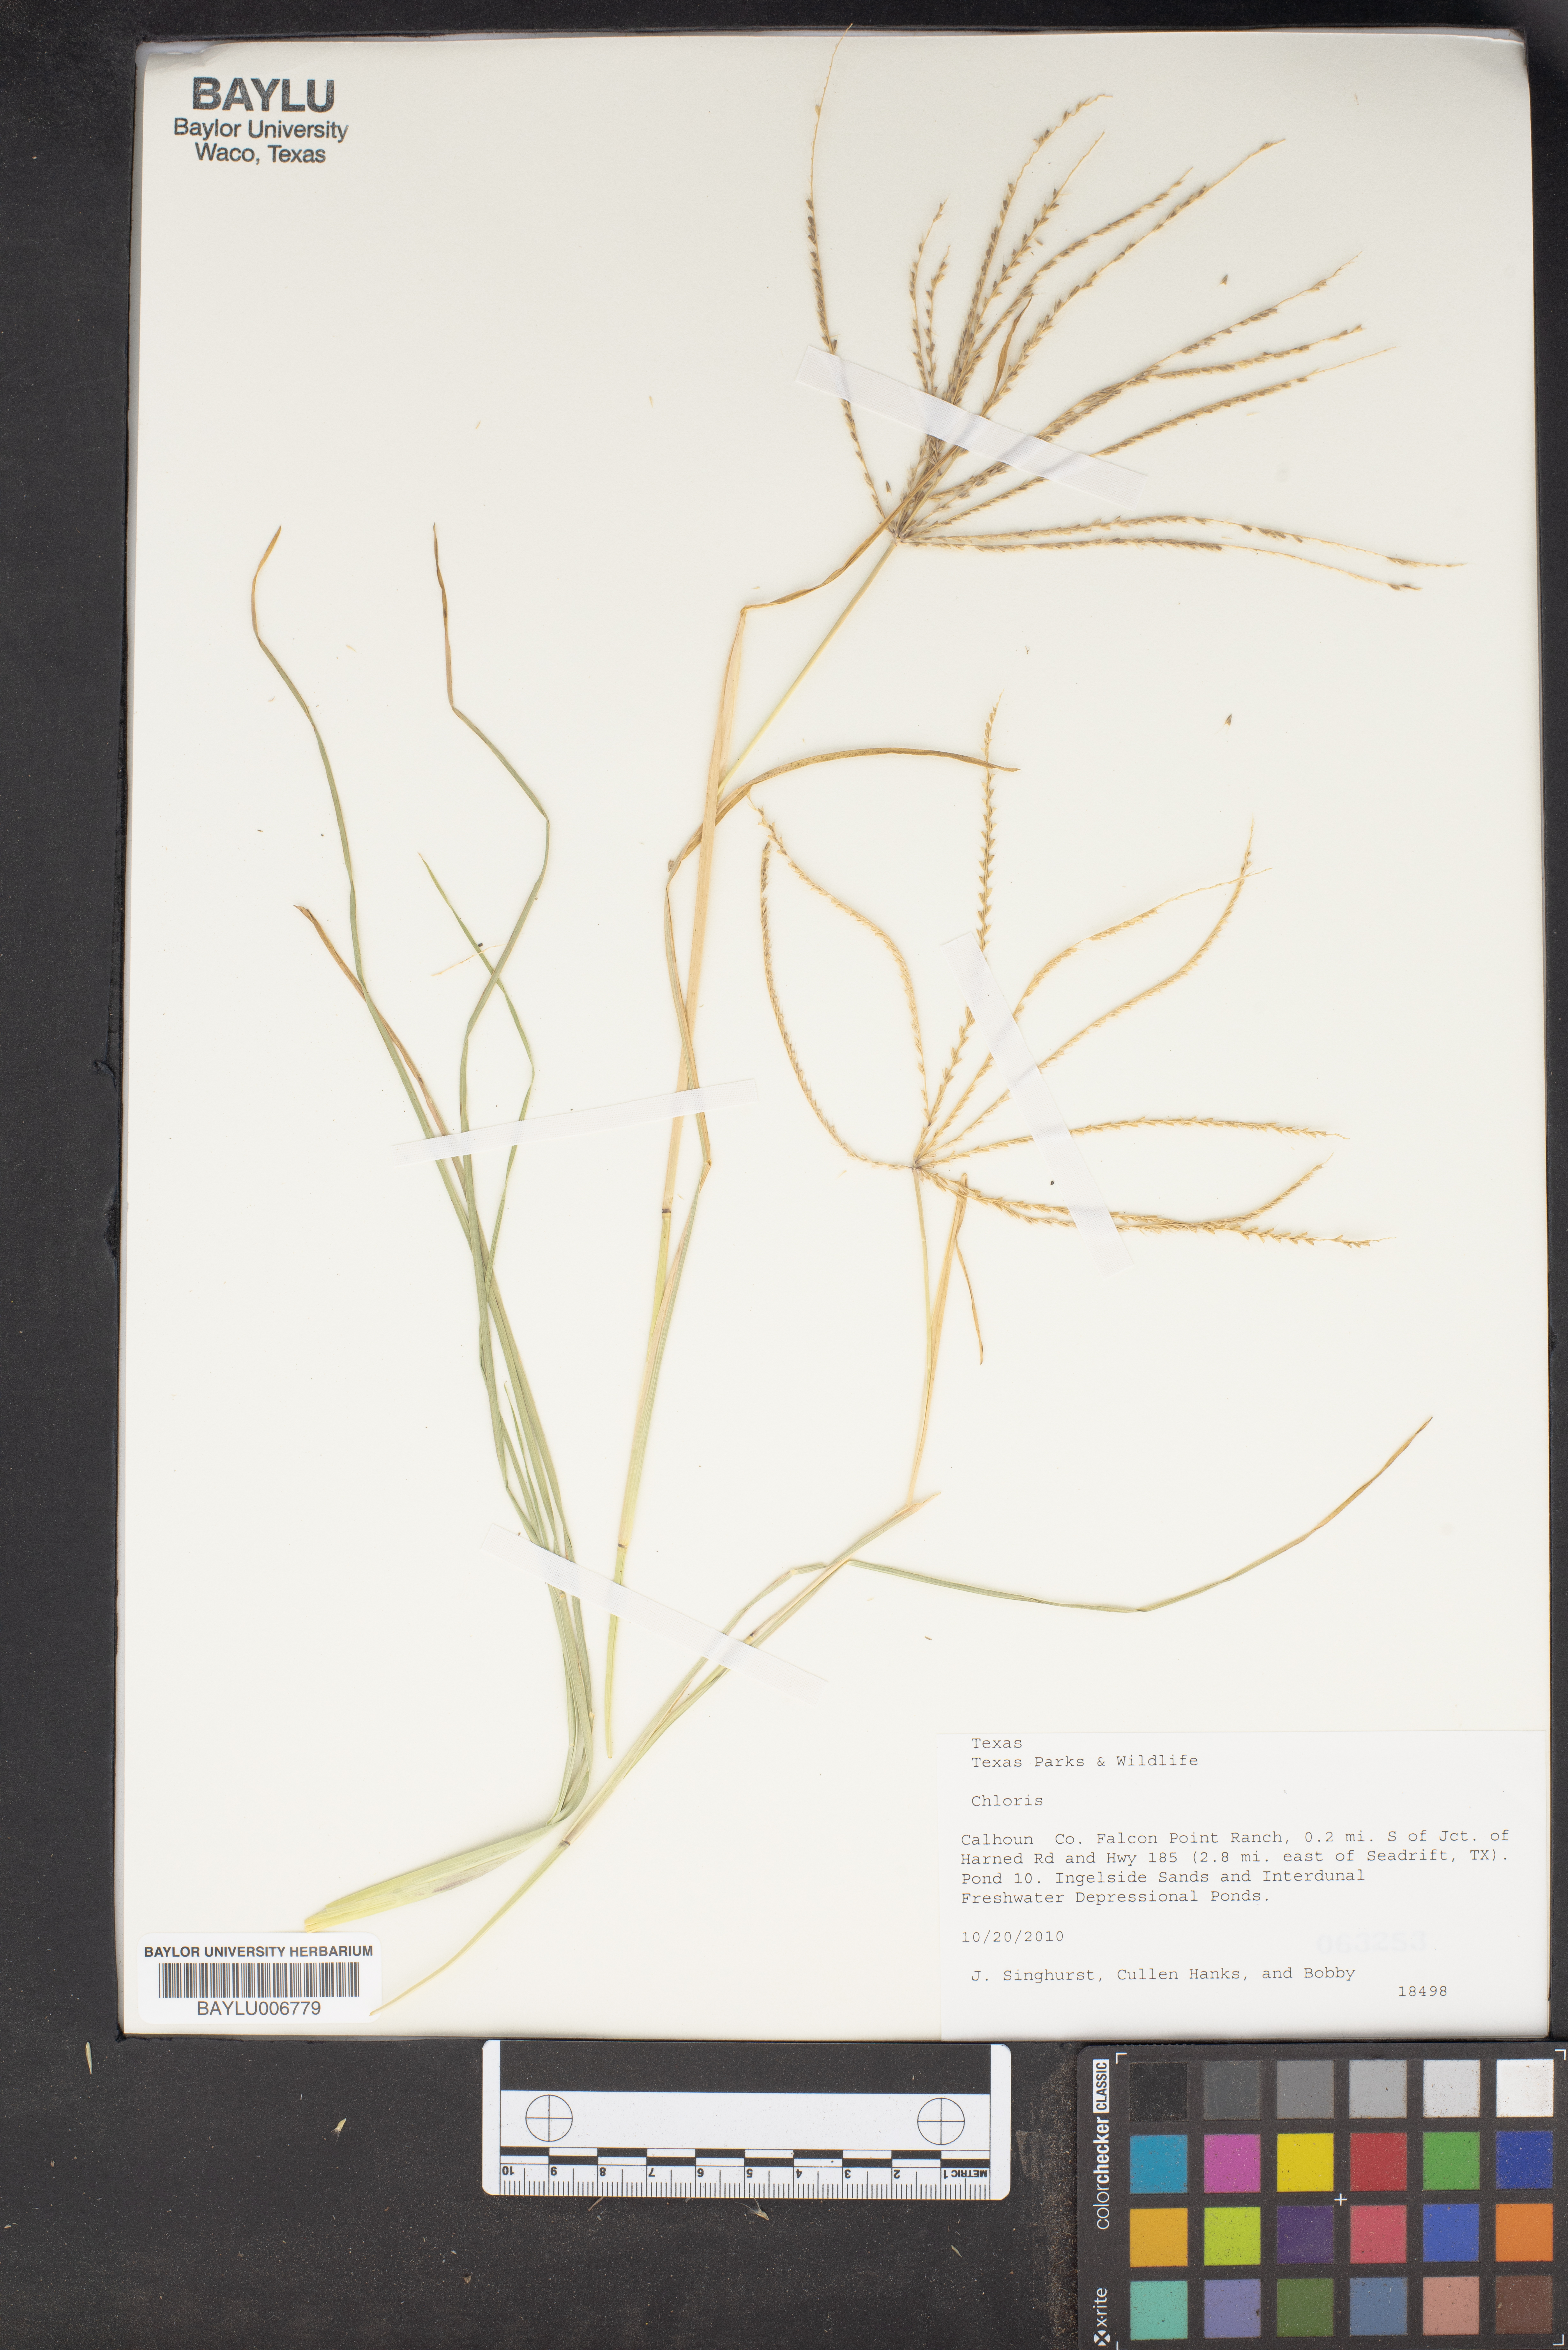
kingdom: Plantae
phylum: Tracheophyta
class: Liliopsida
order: Poales
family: Poaceae
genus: Chloris
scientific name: Chloris
